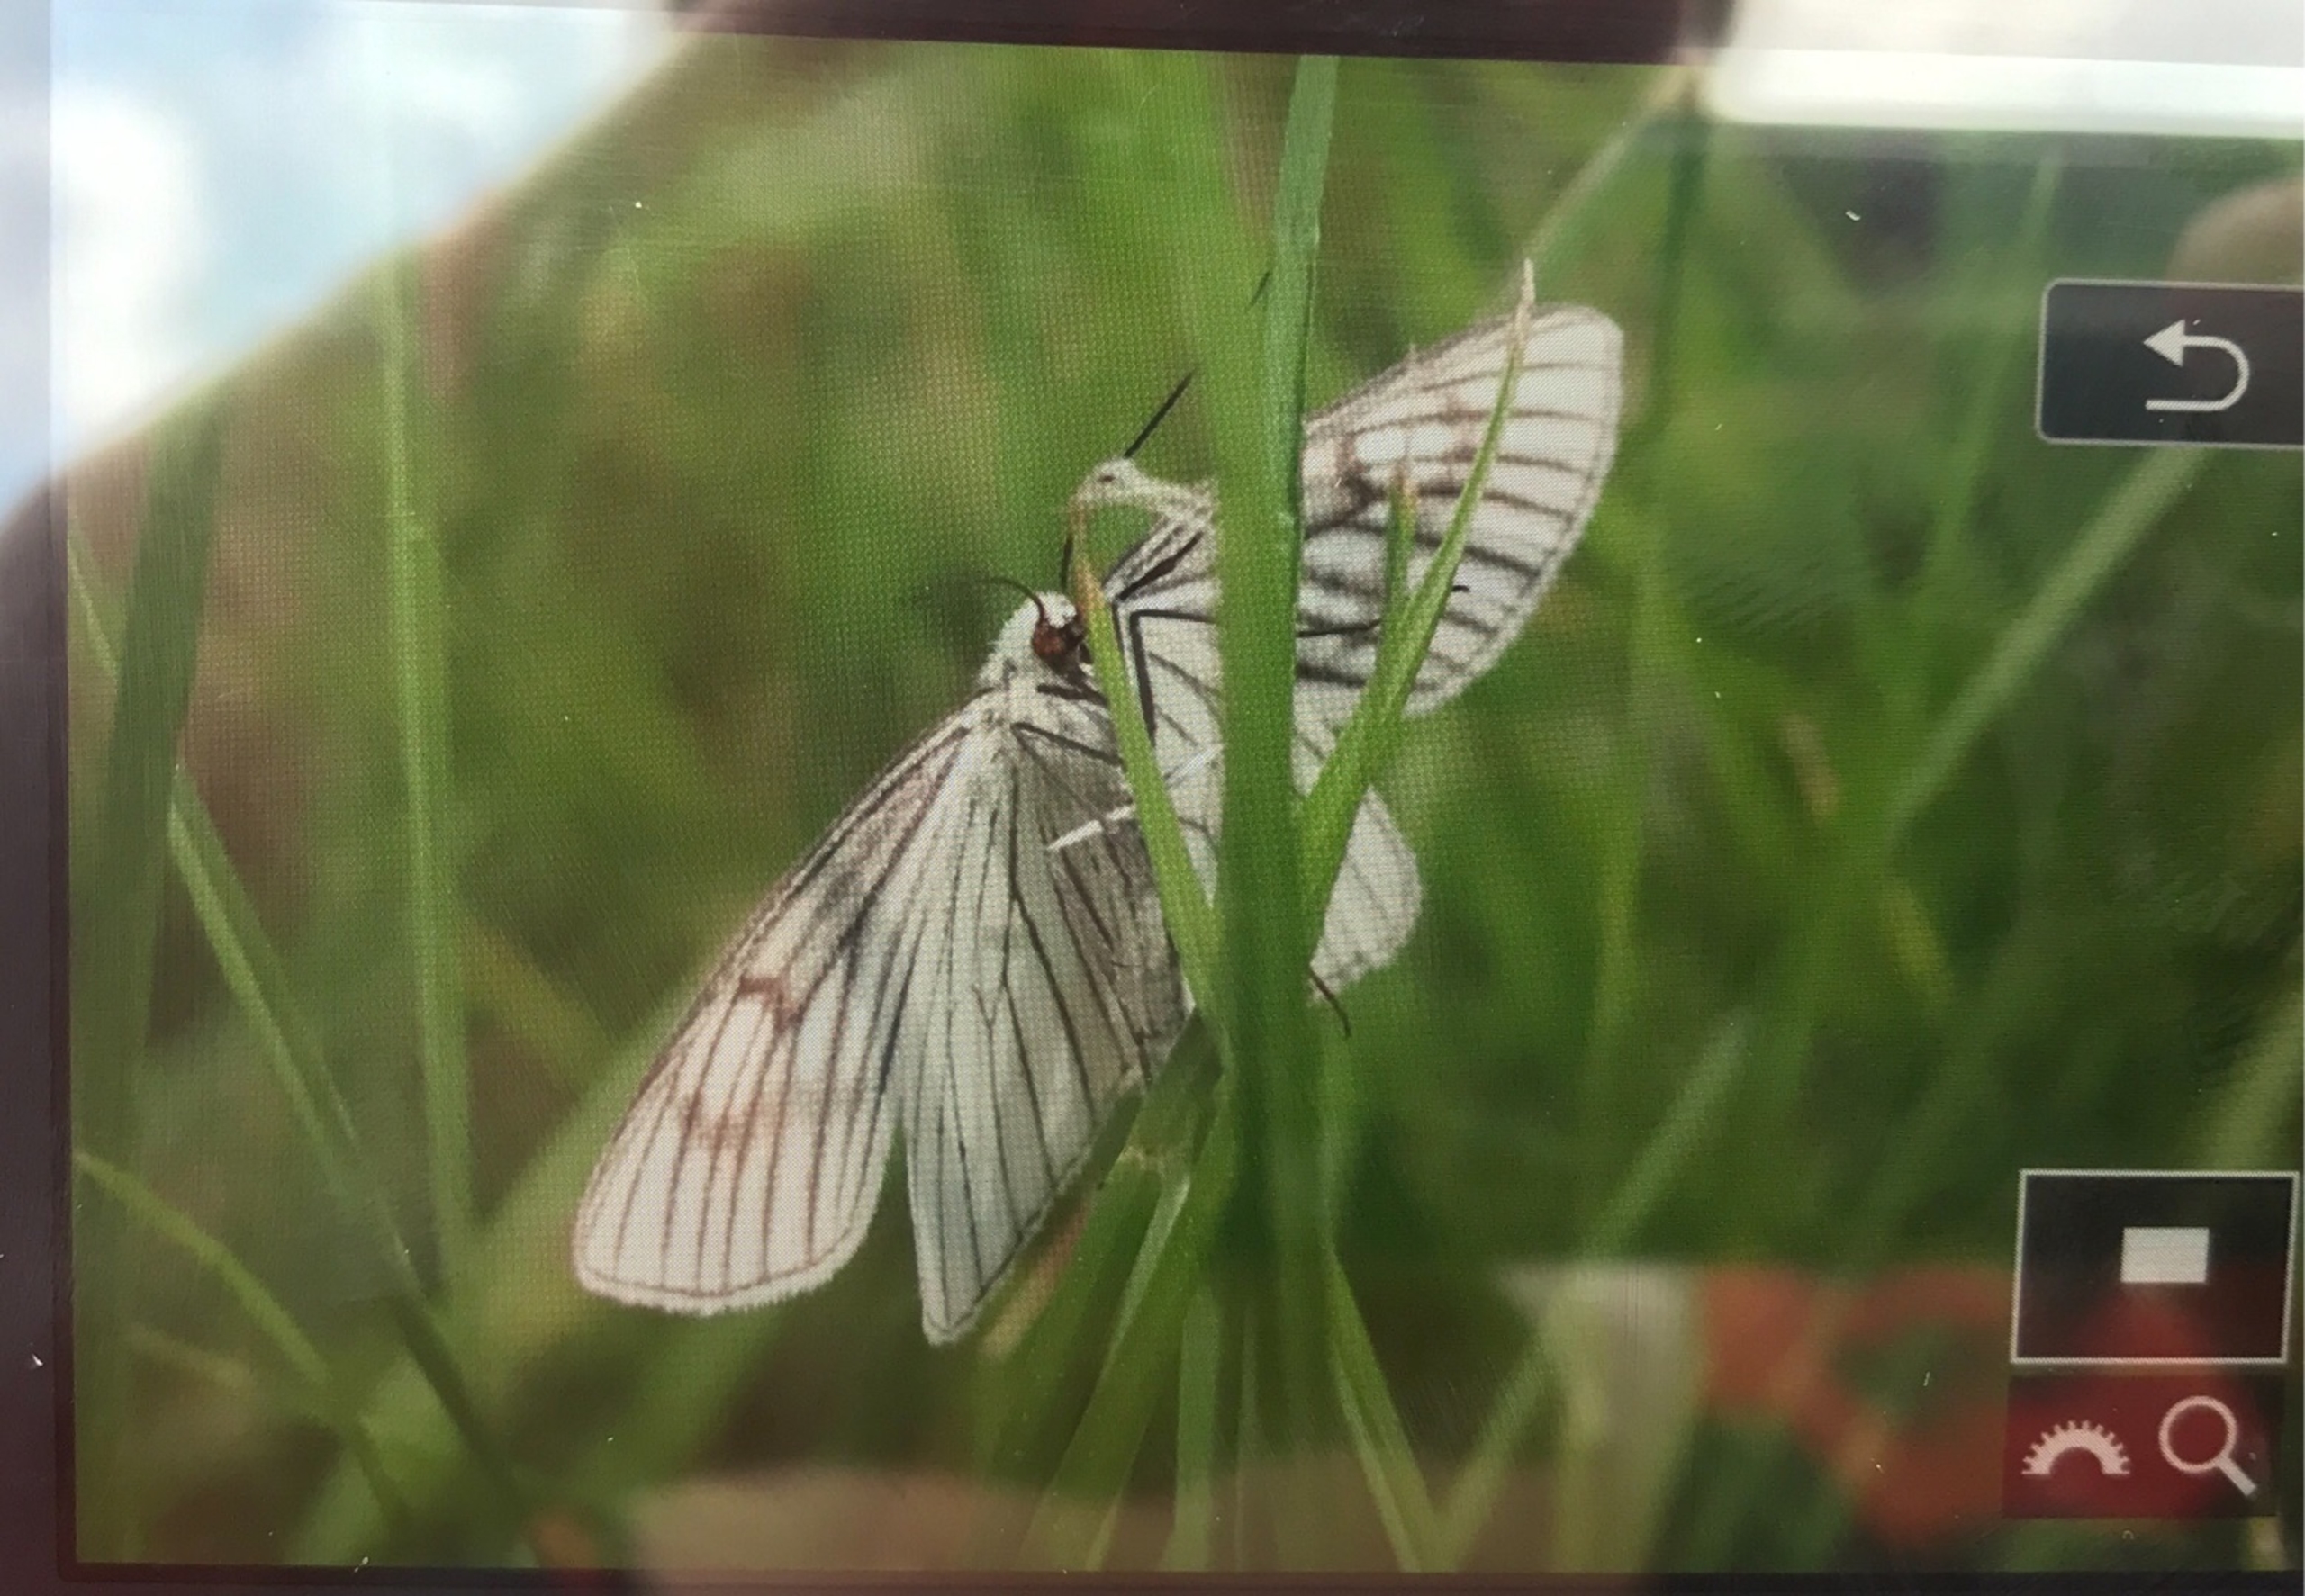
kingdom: Animalia
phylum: Arthropoda
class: Insecta
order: Lepidoptera
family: Geometridae
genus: Siona
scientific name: Siona lineata
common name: Hvidvingemåler
